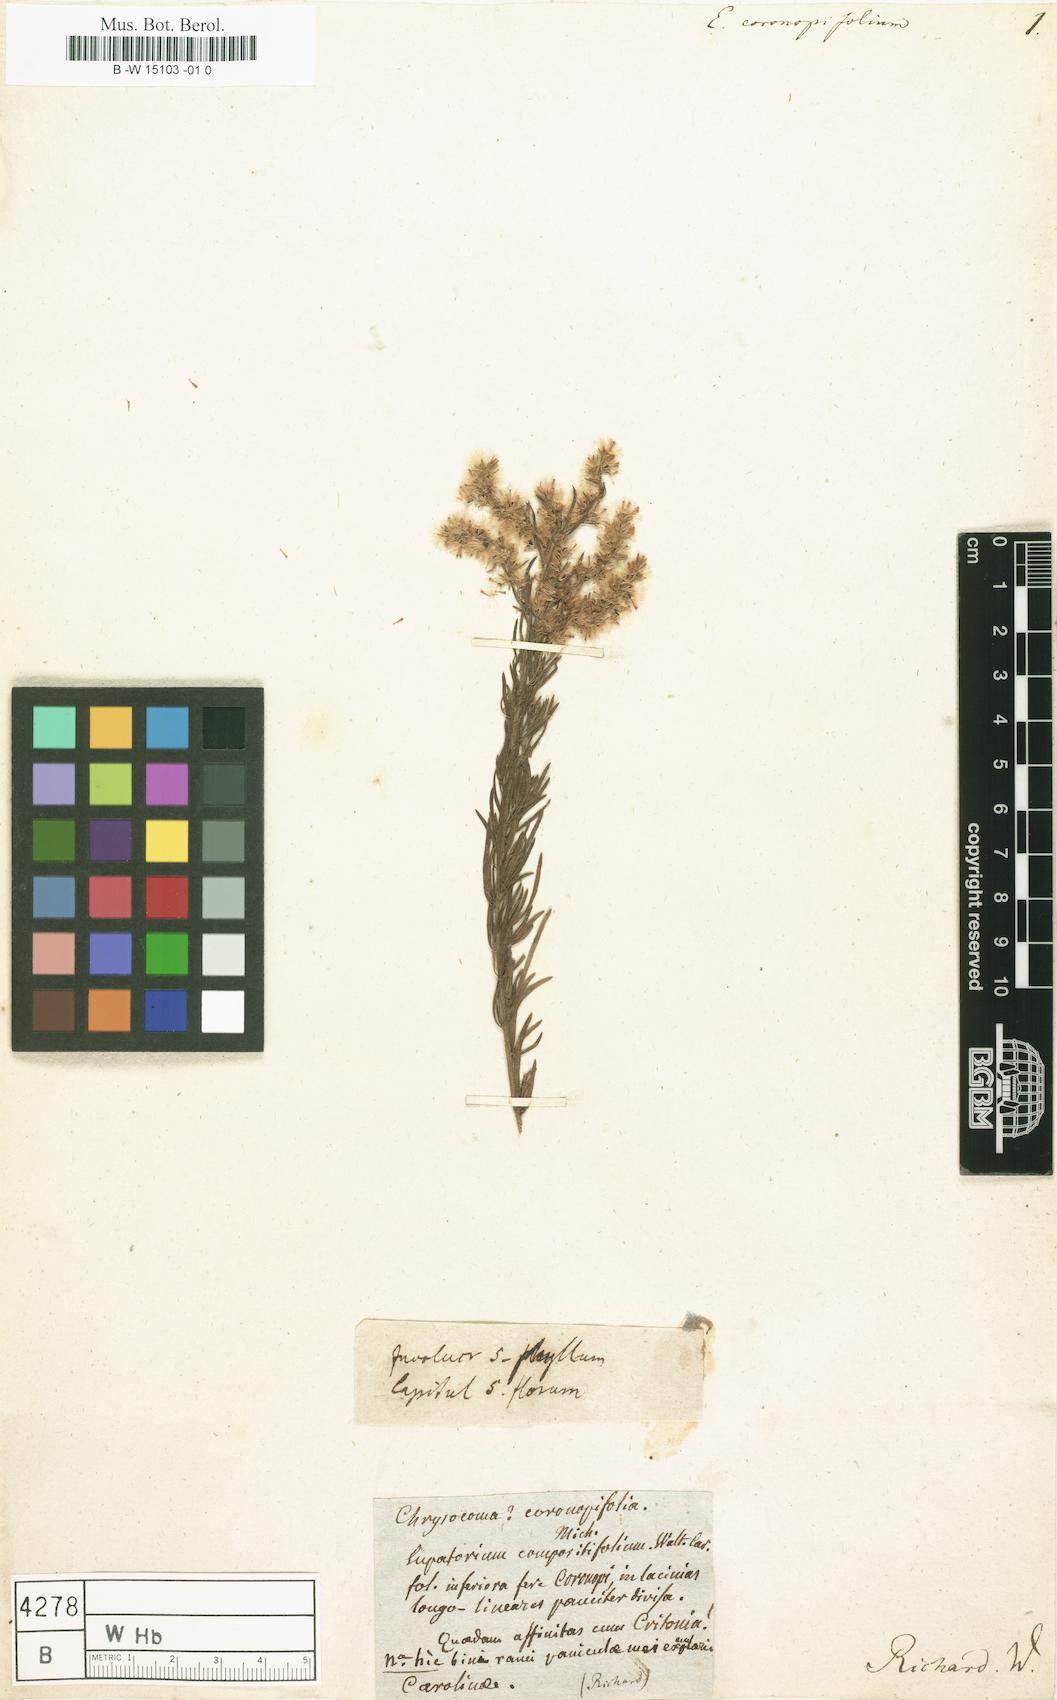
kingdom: Plantae
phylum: Tracheophyta
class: Magnoliopsida
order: Asterales
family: Asteraceae
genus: Eupatorium
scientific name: Eupatorium compositifolium
